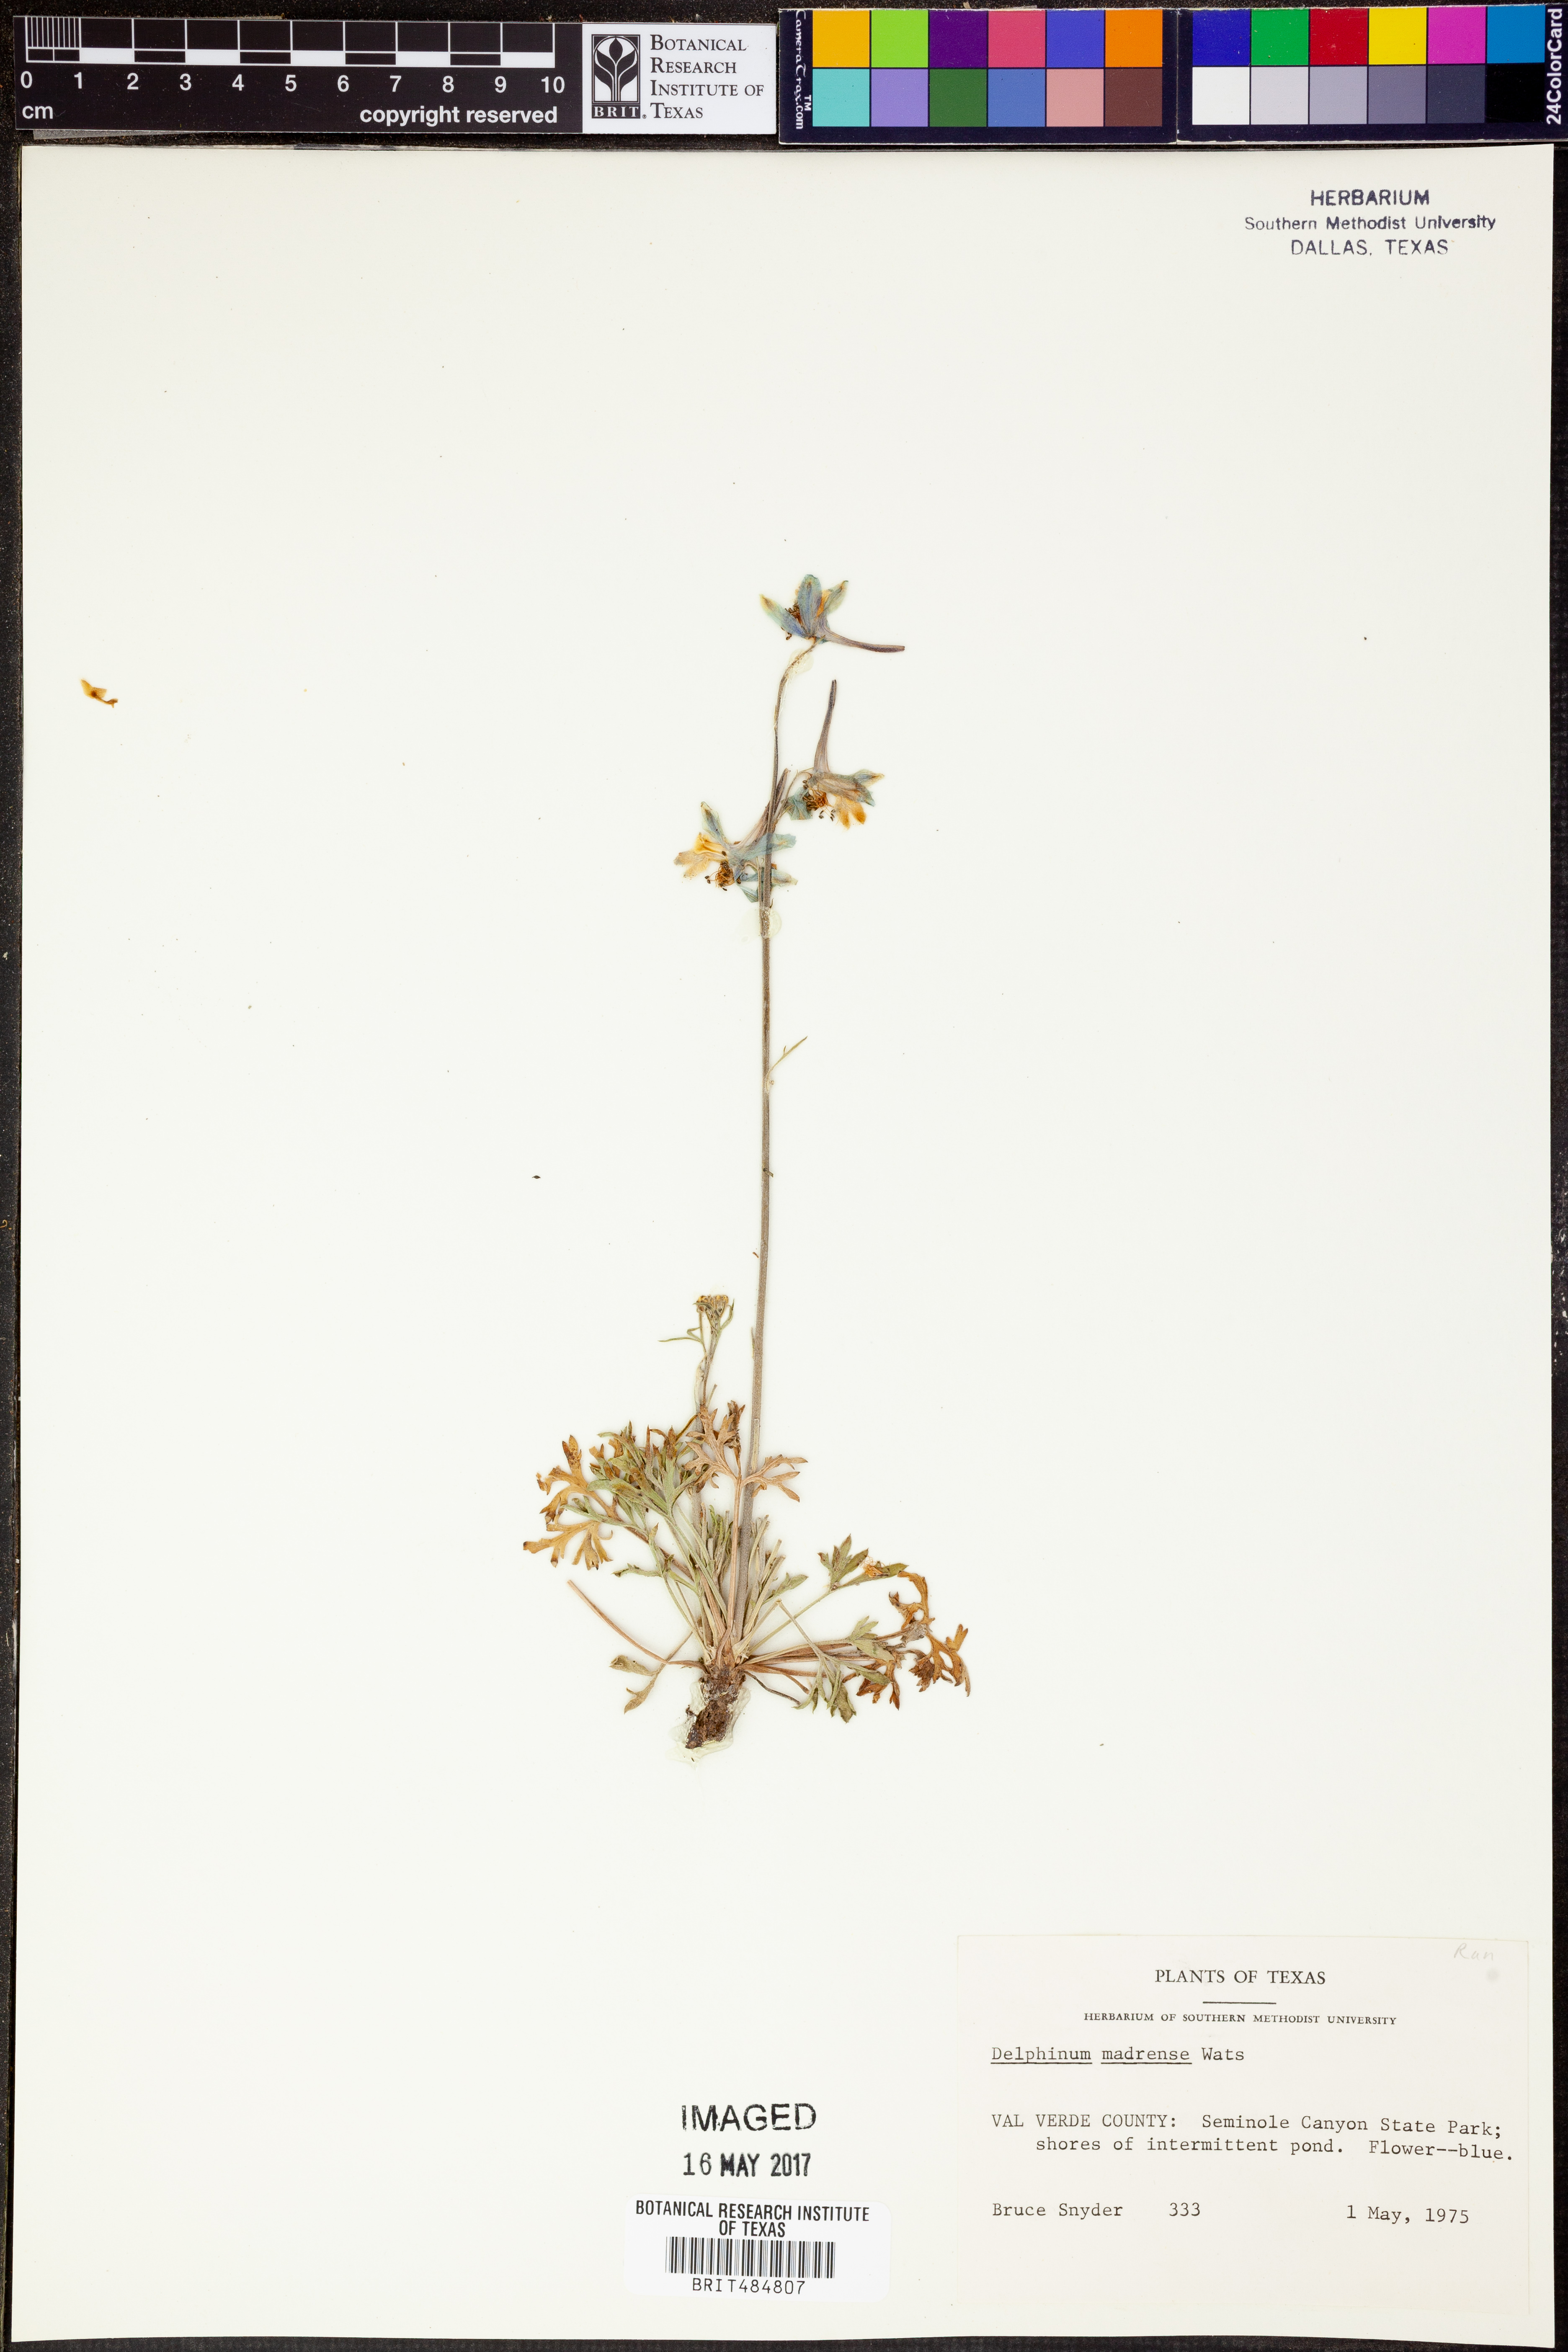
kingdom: Plantae
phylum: Tracheophyta
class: Magnoliopsida
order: Ranunculales
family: Ranunculaceae
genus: Delphinium
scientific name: Delphinium madrense
